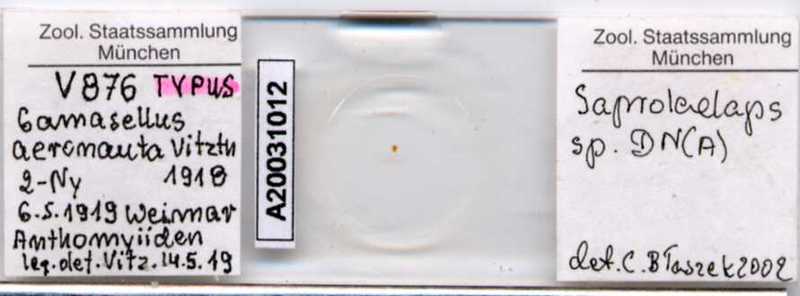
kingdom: Animalia
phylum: Arthropoda
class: Arachnida
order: Mesostigmata
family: Halolaelapidae
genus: Saprolaelaps
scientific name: Saprolaelaps
